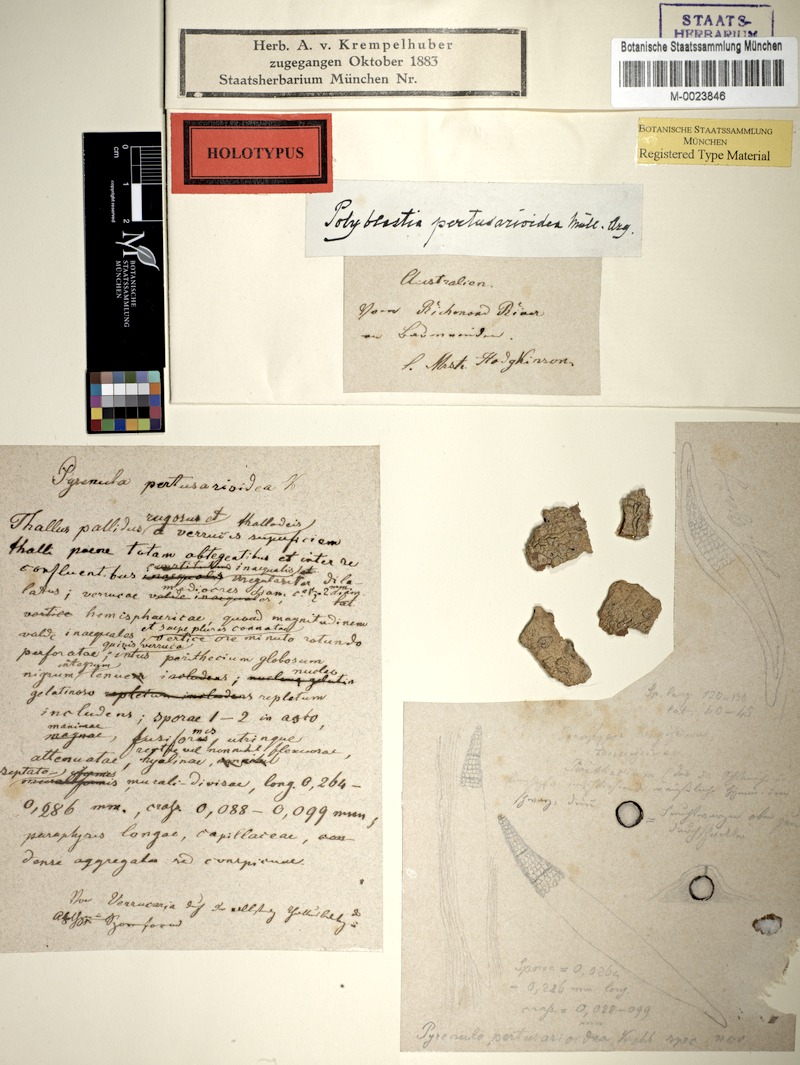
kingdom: Fungi
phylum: Ascomycota
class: Lecanoromycetes
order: Ostropales
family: Thelenellaceae
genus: Polyblastiopsis
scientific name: Polyblastiopsis pertusarioidea
